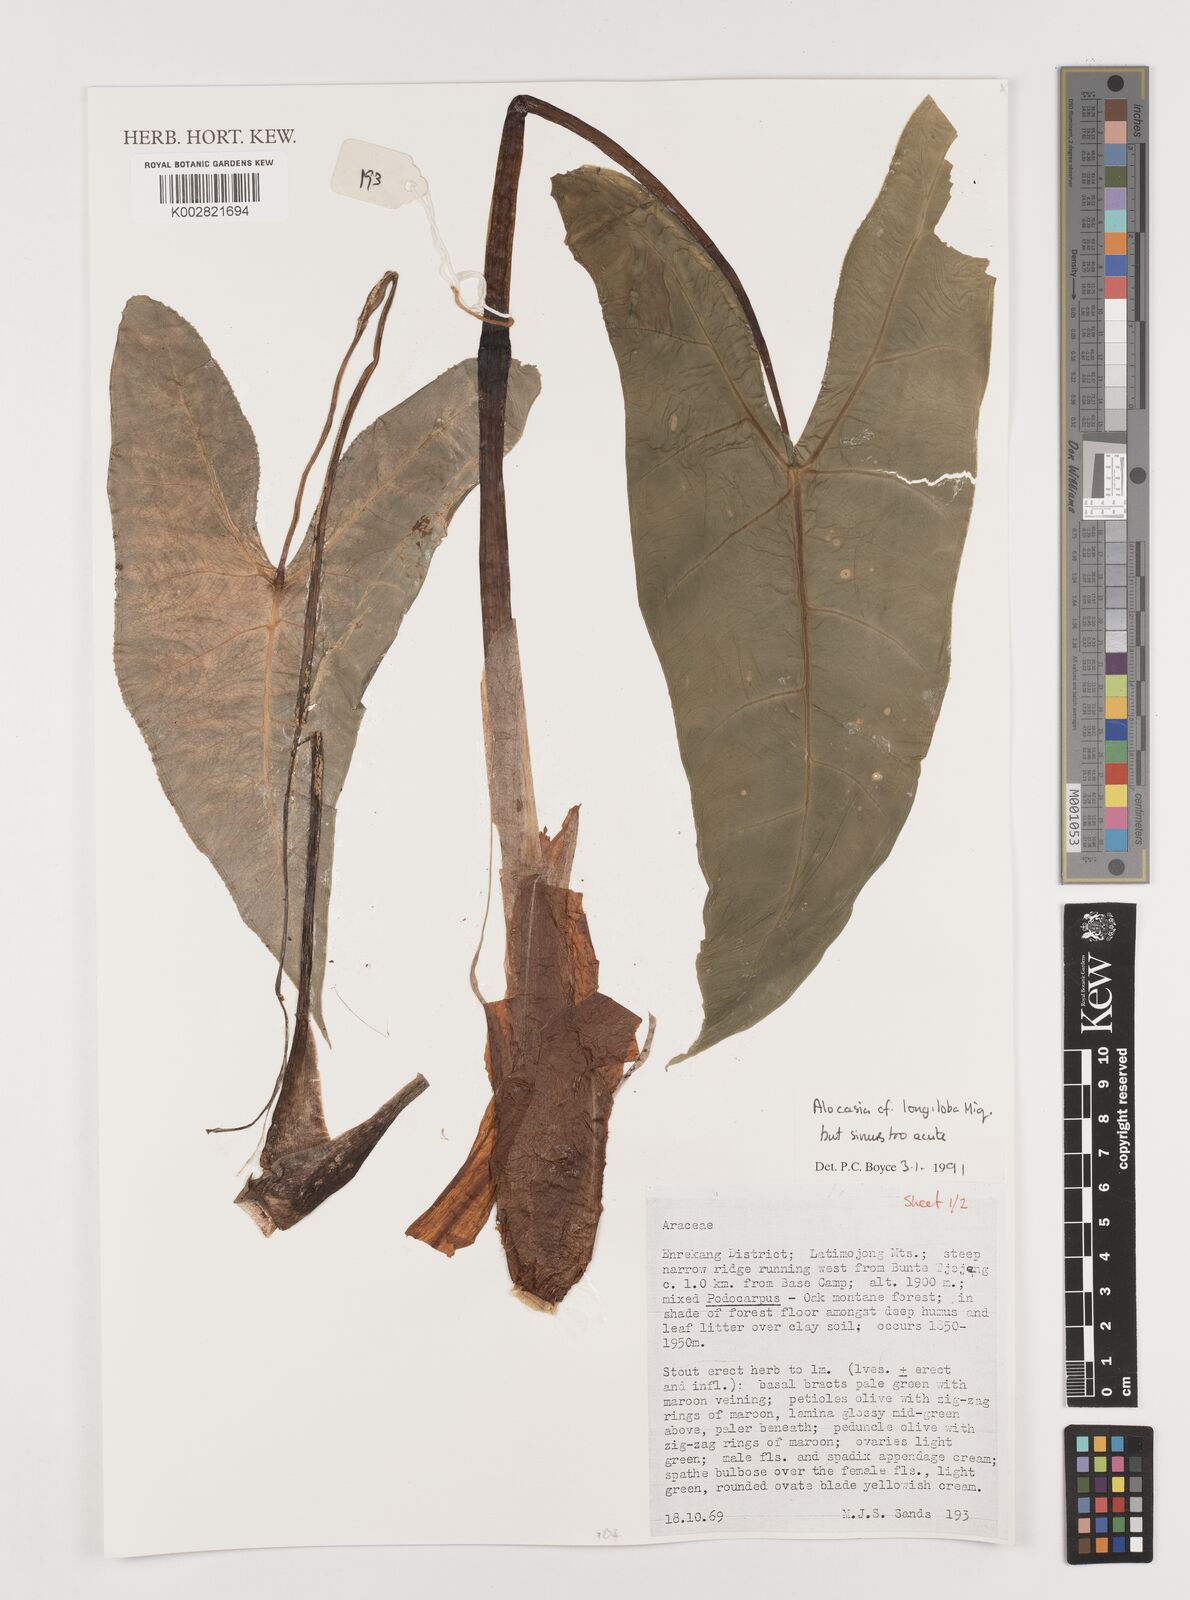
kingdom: Plantae
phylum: Tracheophyta
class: Liliopsida
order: Alismatales
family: Araceae
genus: Alocasia
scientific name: Alocasia longiloba
